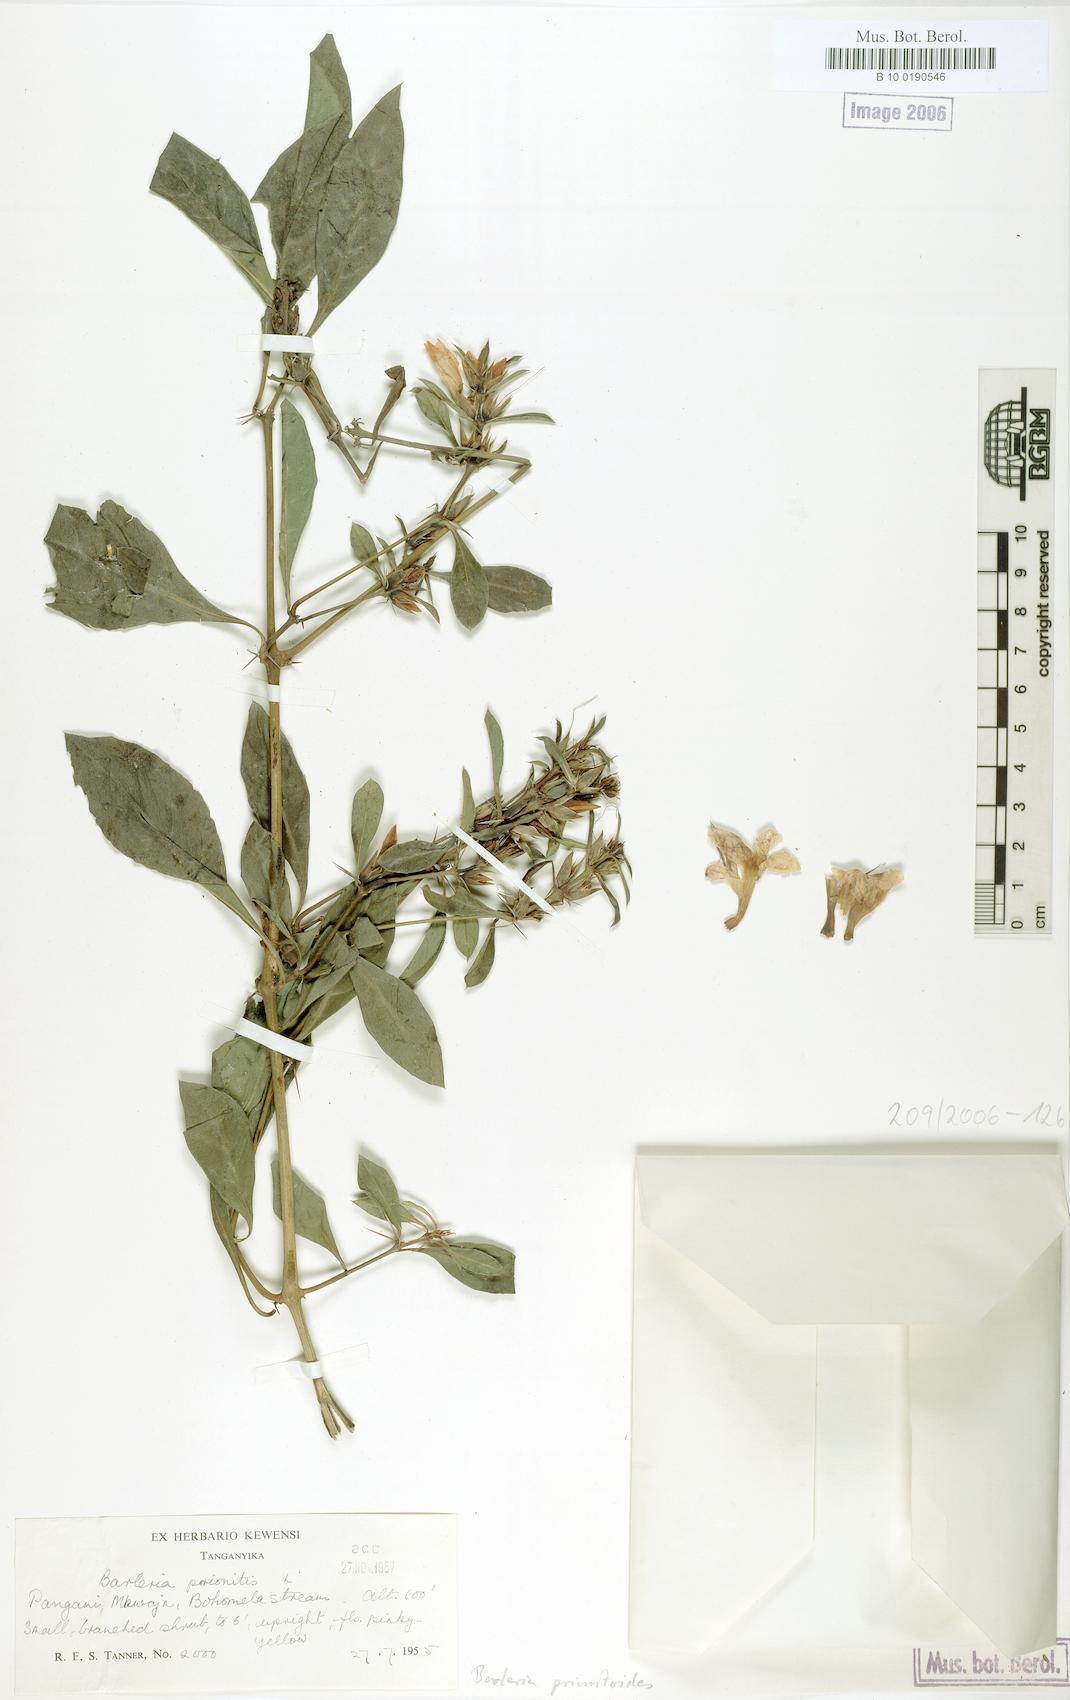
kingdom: Plantae
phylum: Tracheophyta
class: Magnoliopsida
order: Lamiales
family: Acanthaceae
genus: Barleria
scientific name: Barleria prionitis
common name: Barleria
